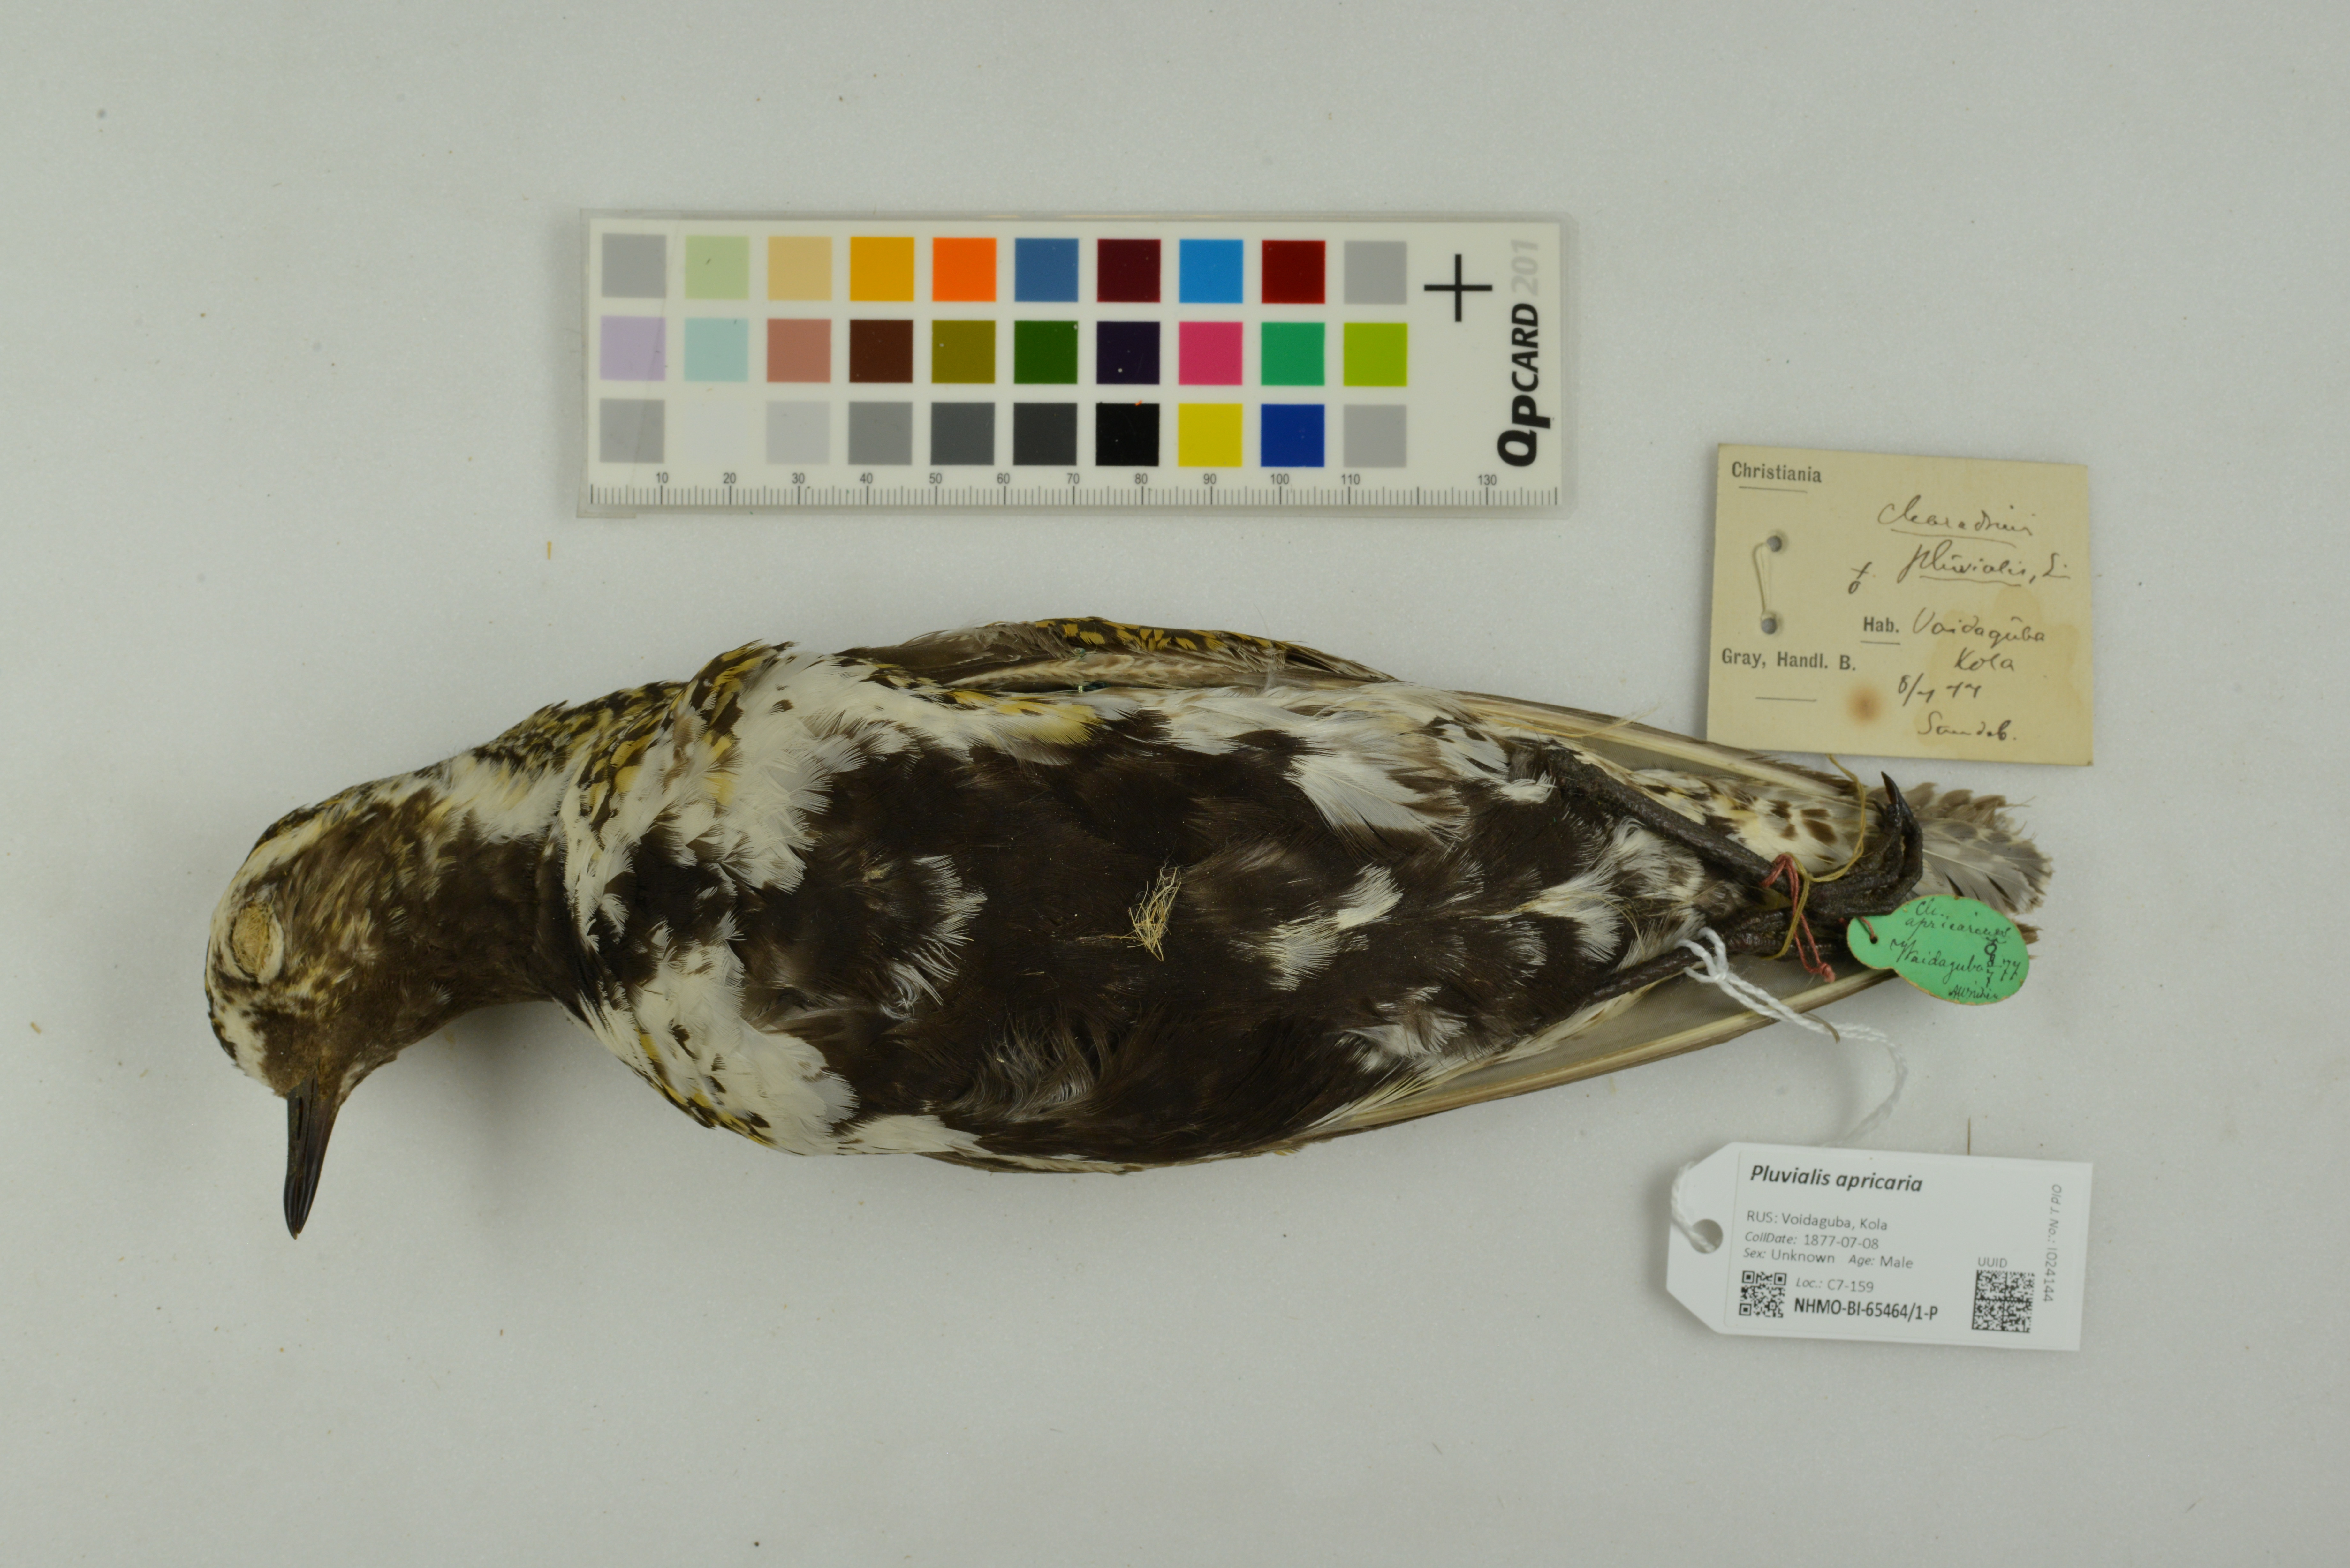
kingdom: Animalia
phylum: Chordata
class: Aves
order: Charadriiformes
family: Charadriidae
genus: Pluvialis
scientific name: Pluvialis apricaria
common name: European golden plover
